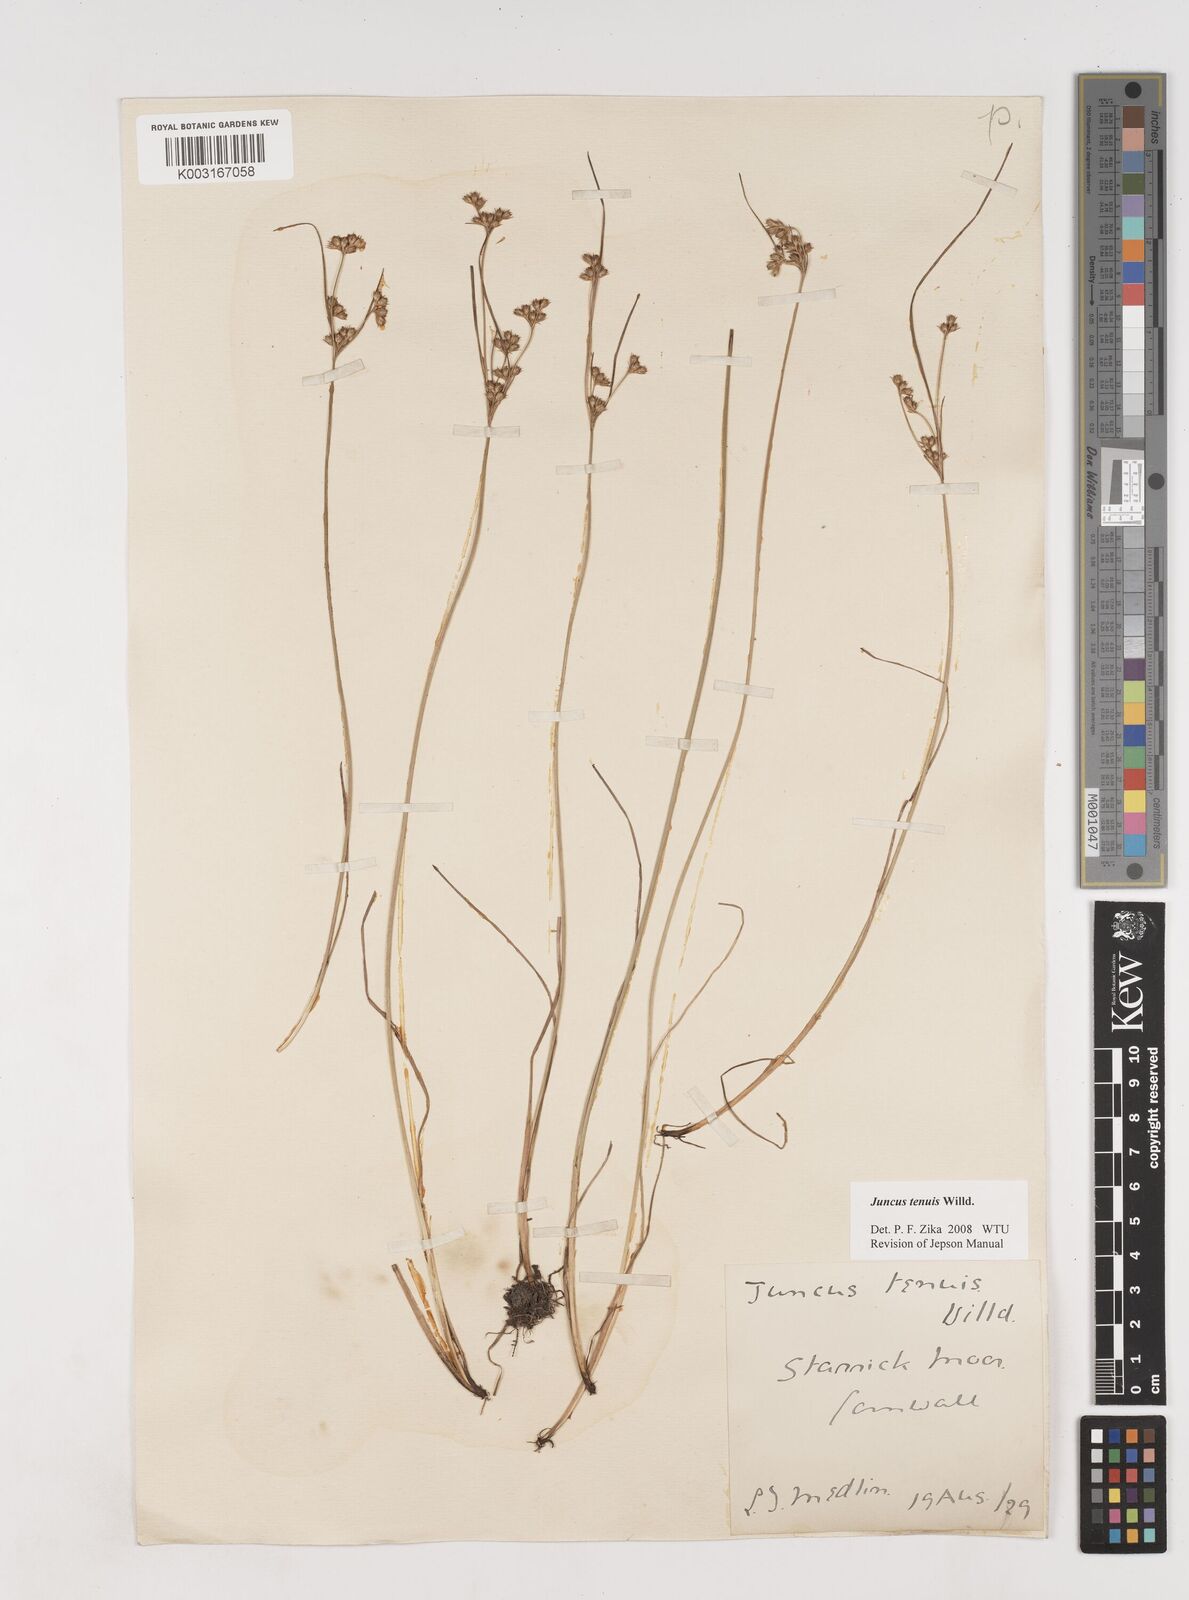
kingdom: Plantae
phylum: Tracheophyta
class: Liliopsida
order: Poales
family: Juncaceae
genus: Juncus
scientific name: Juncus tenuis
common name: Slender rush
